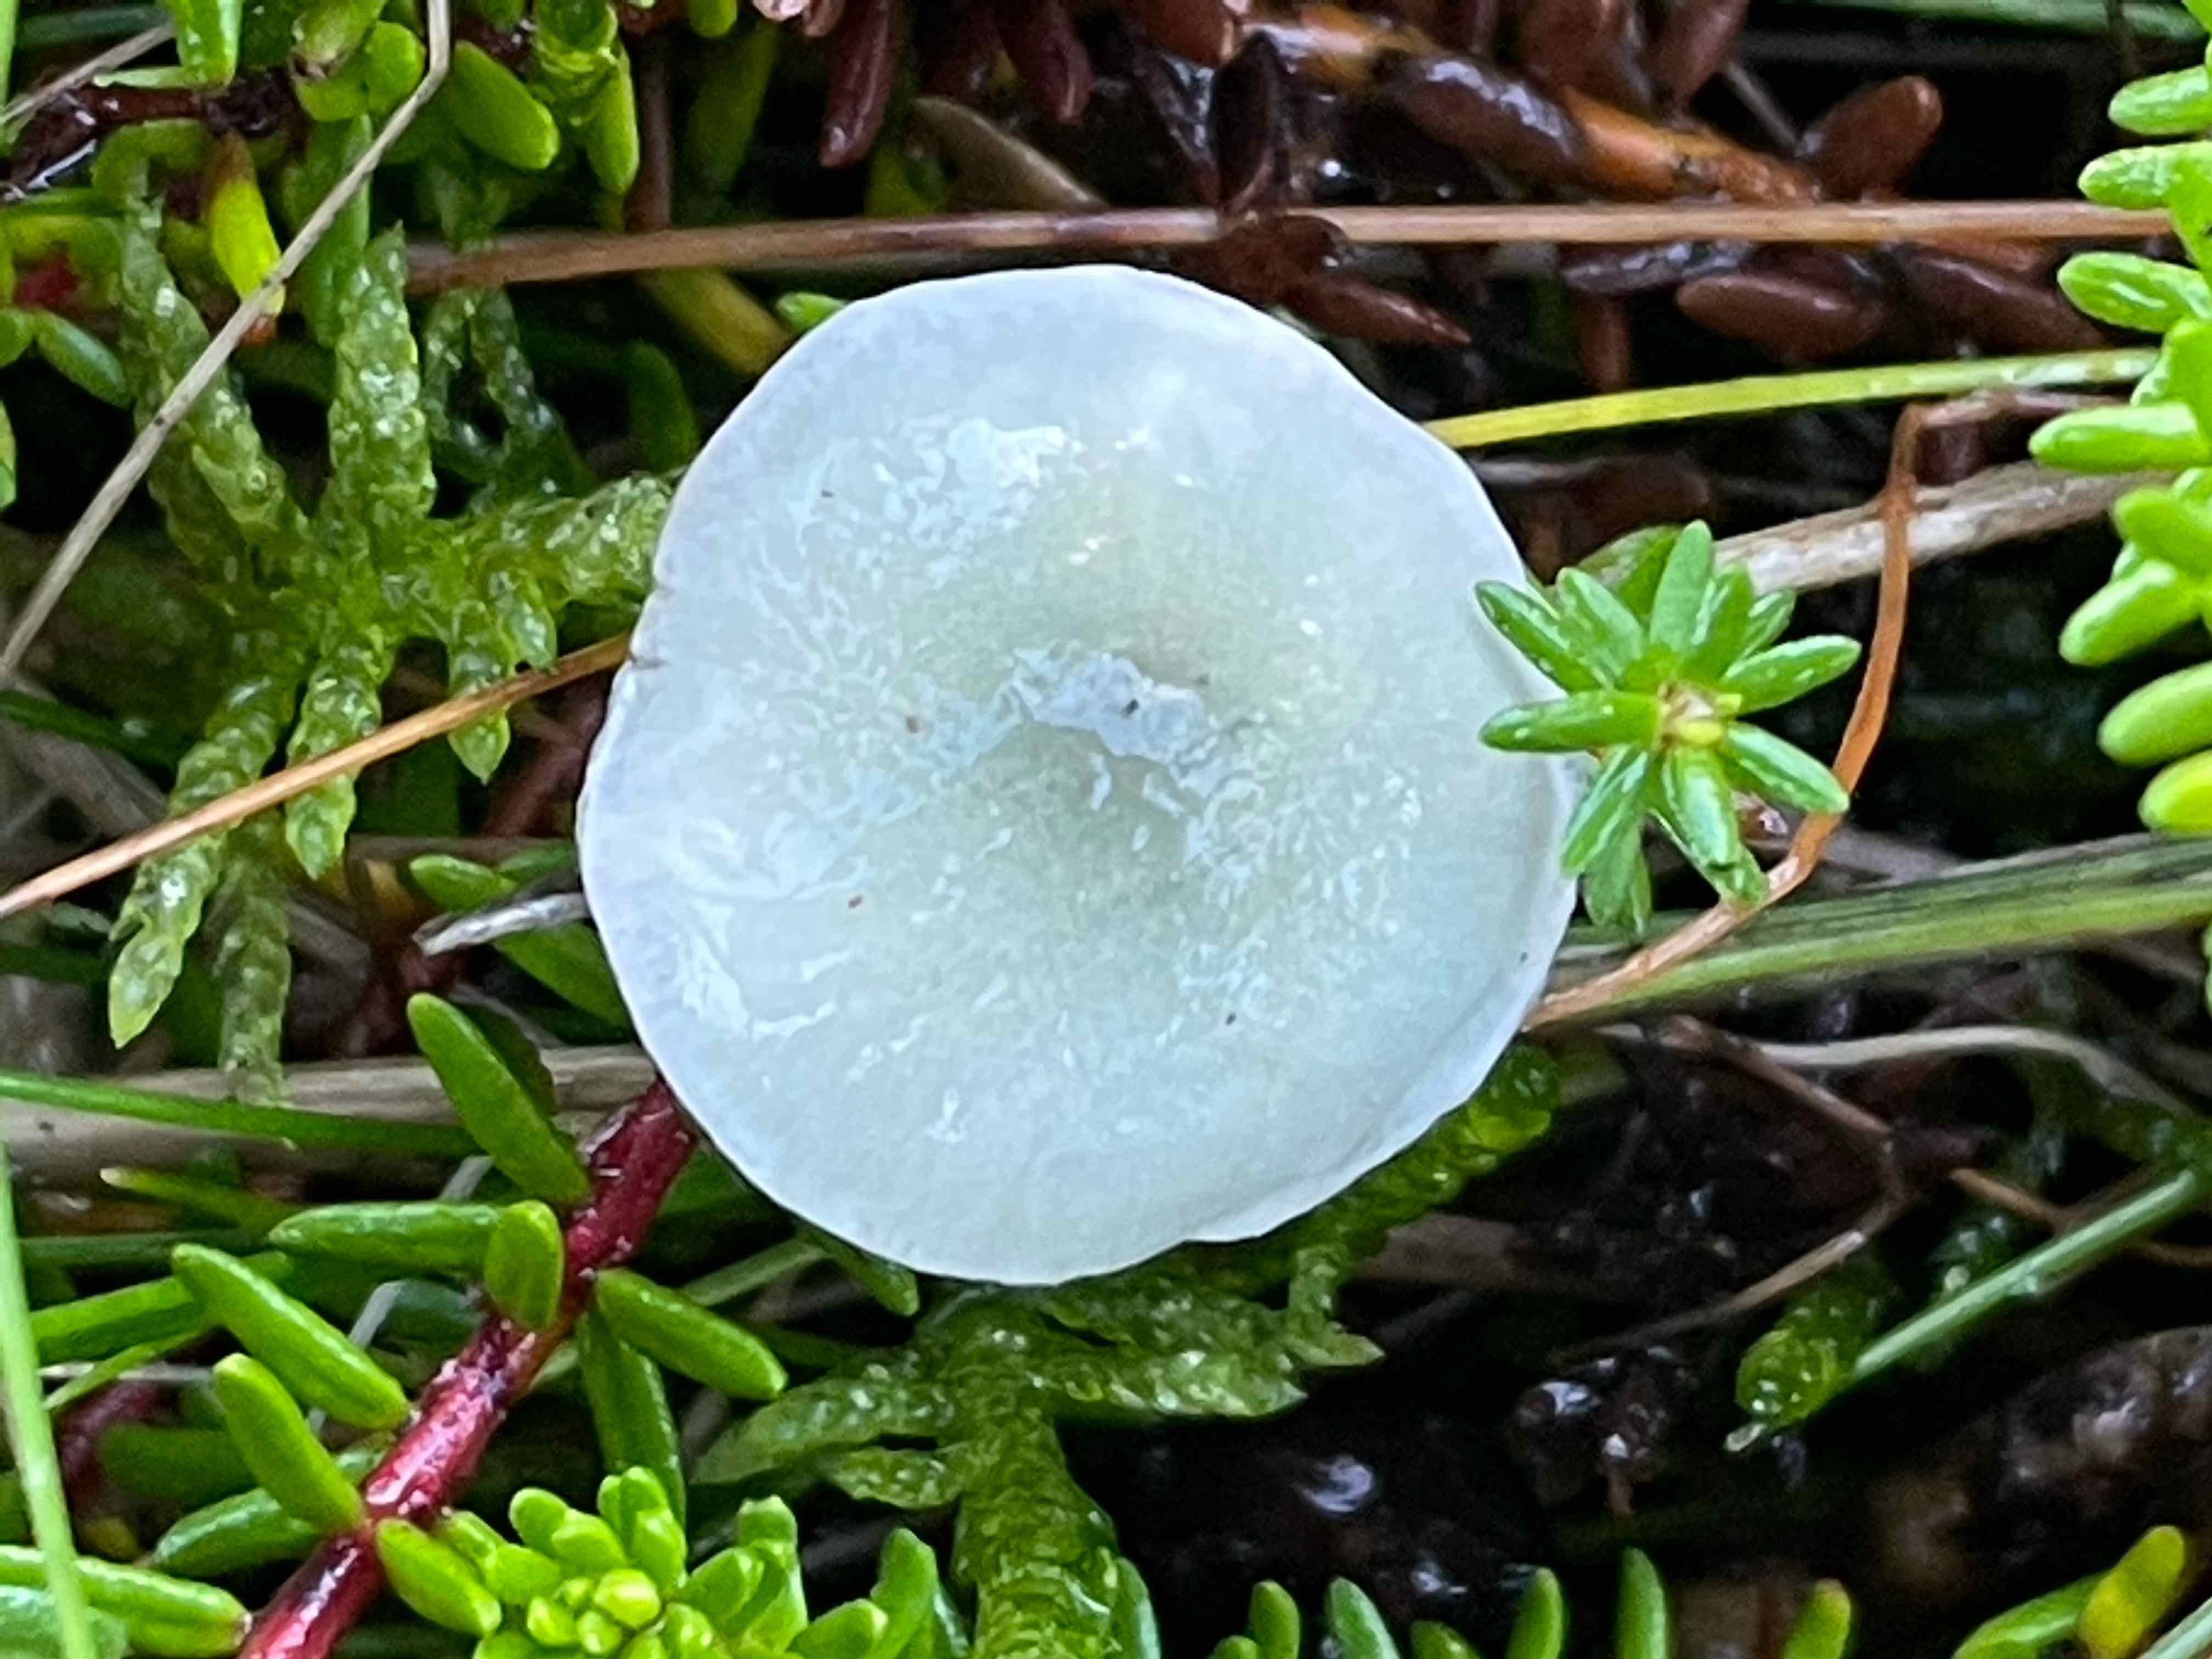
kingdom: Fungi
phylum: Basidiomycota
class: Agaricomycetes
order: Agaricales
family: Strophariaceae
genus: Stropharia
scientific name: Stropharia pseudocyanea
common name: blegblå bredblad
